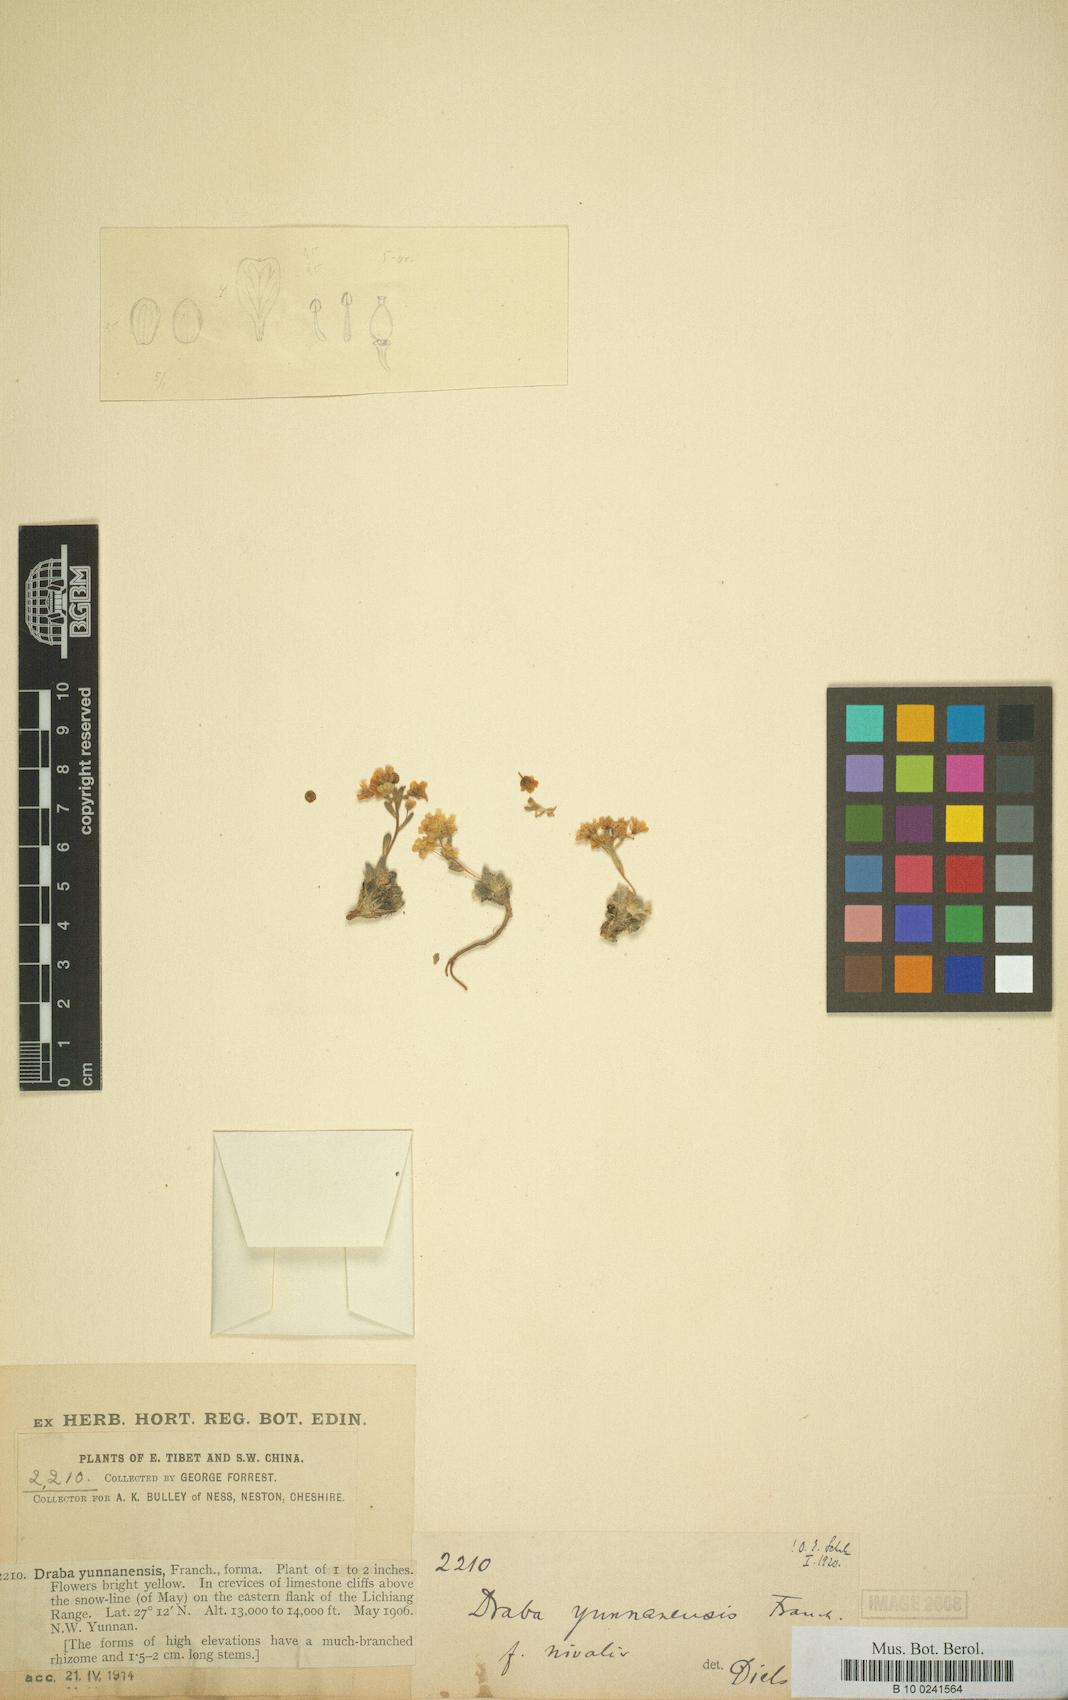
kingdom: Plantae
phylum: Tracheophyta
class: Magnoliopsida
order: Brassicales
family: Brassicaceae
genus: Draba
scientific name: Draba yunnanensis
